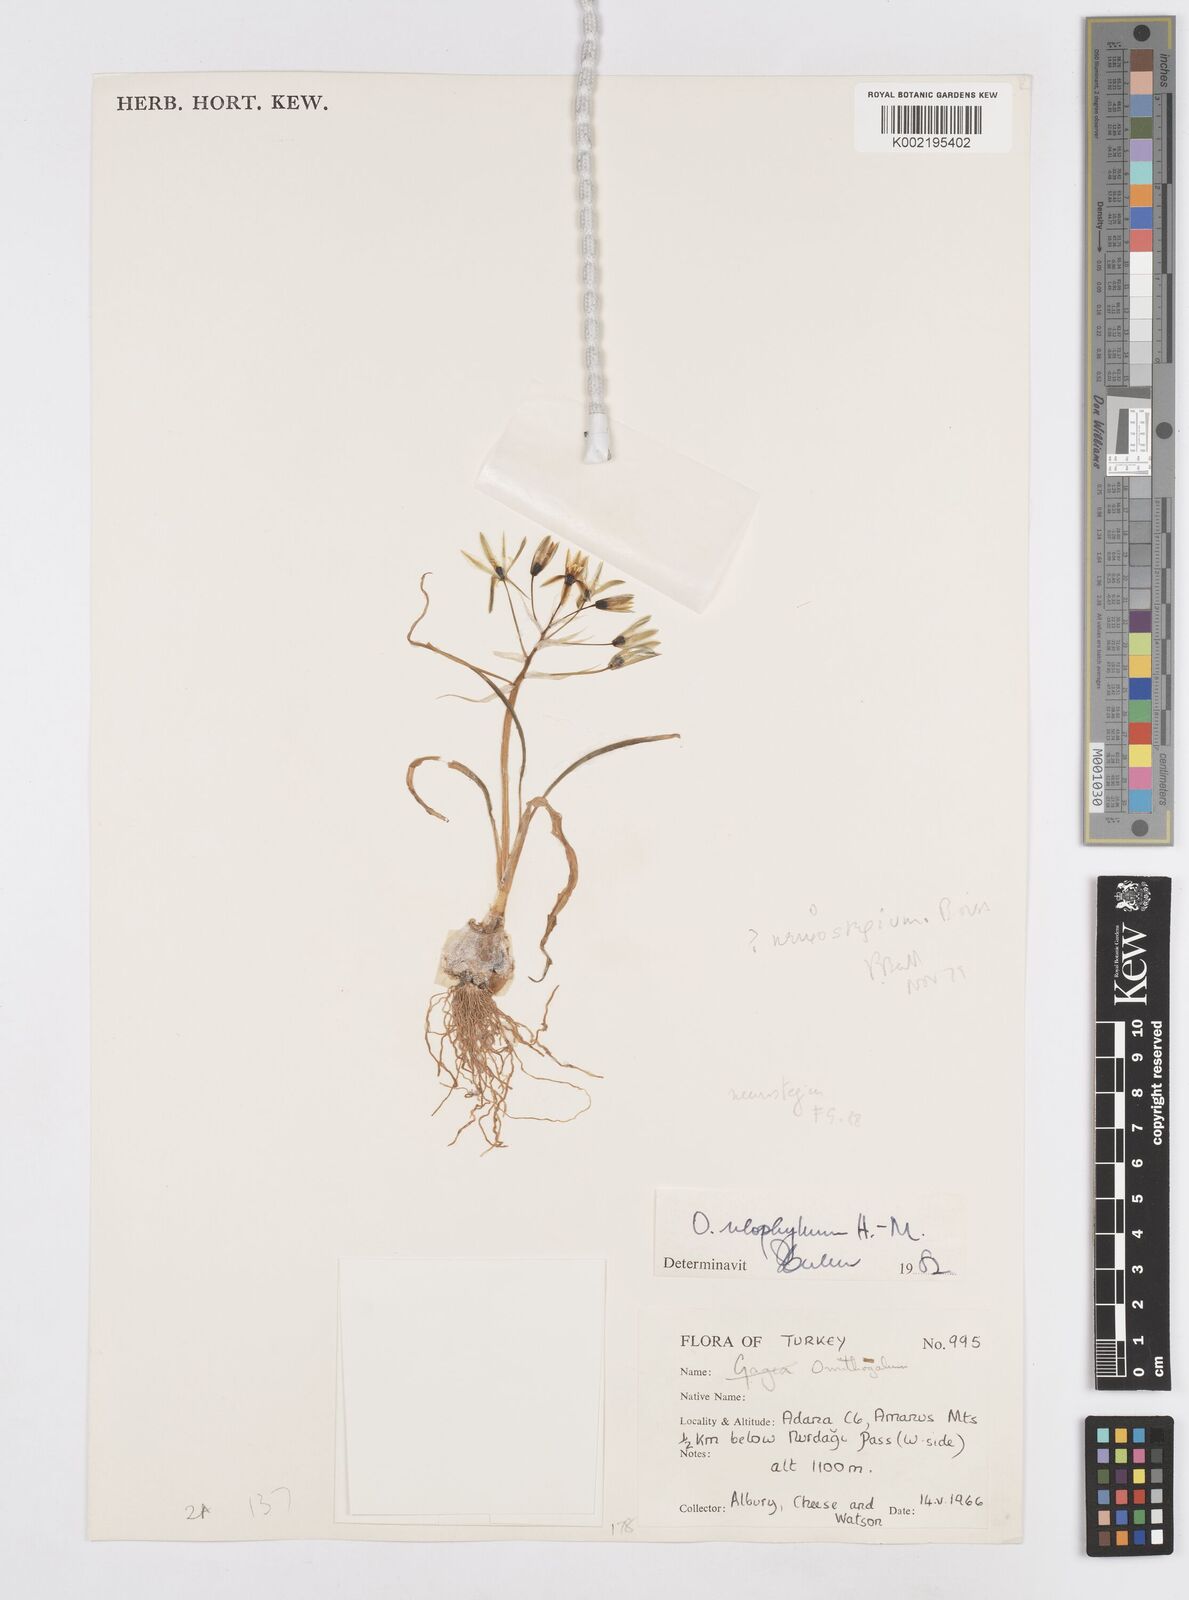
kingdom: Plantae
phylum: Tracheophyta
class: Liliopsida
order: Asparagales
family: Asparagaceae
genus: Ornithogalum
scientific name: Ornithogalum neurostegium
